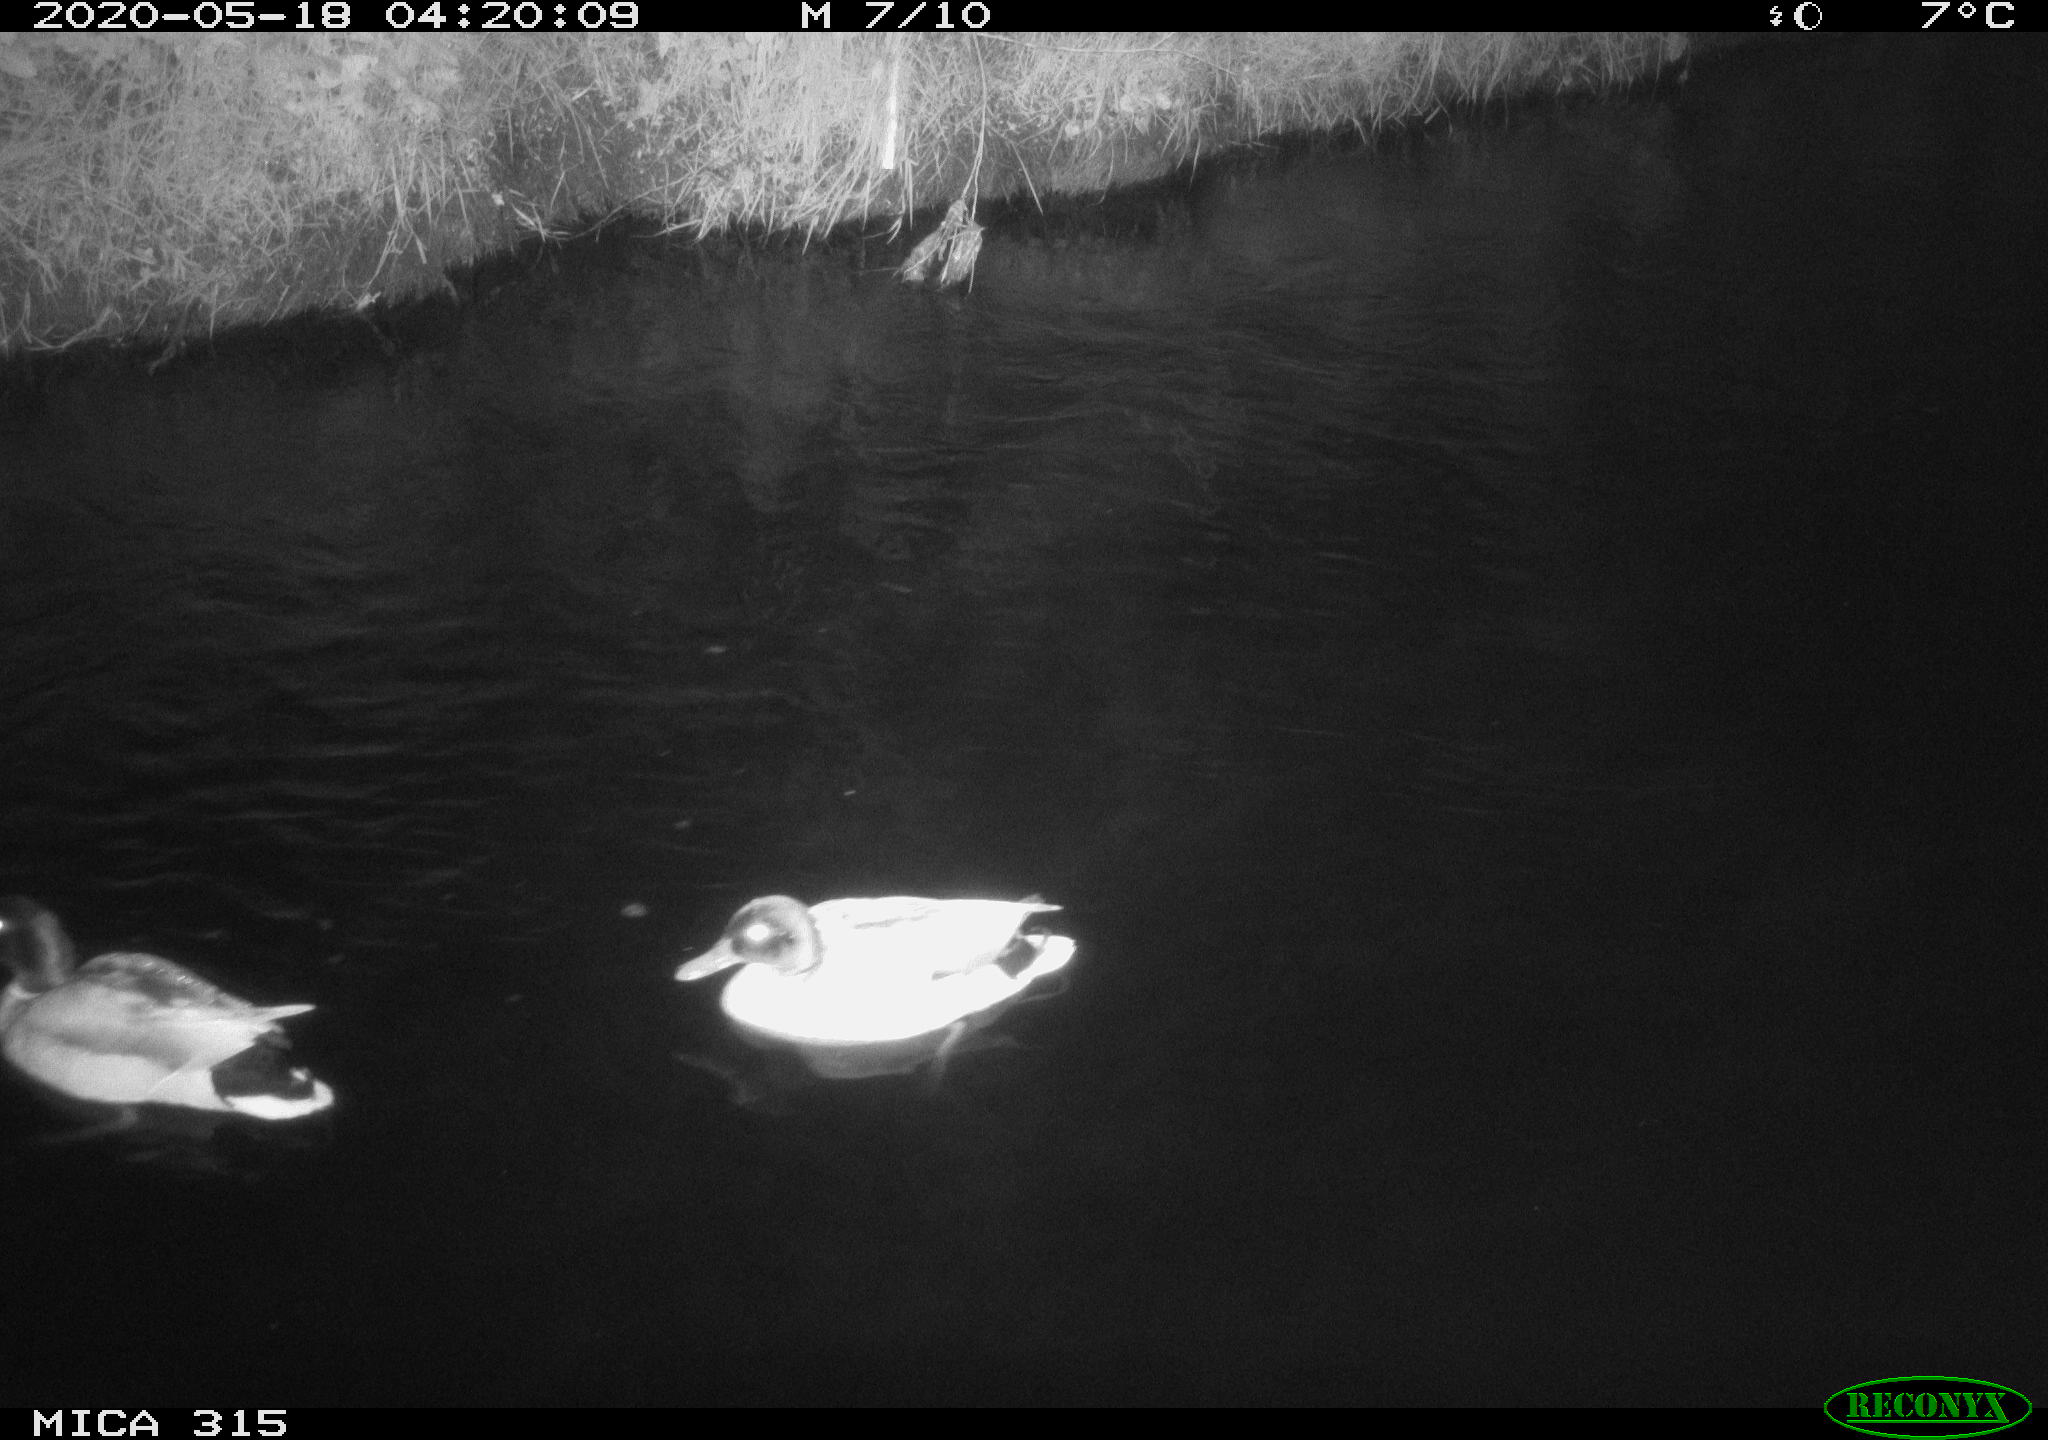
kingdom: Animalia
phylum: Chordata
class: Aves
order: Anseriformes
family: Anatidae
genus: Anas
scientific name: Anas platyrhynchos
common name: Mallard
